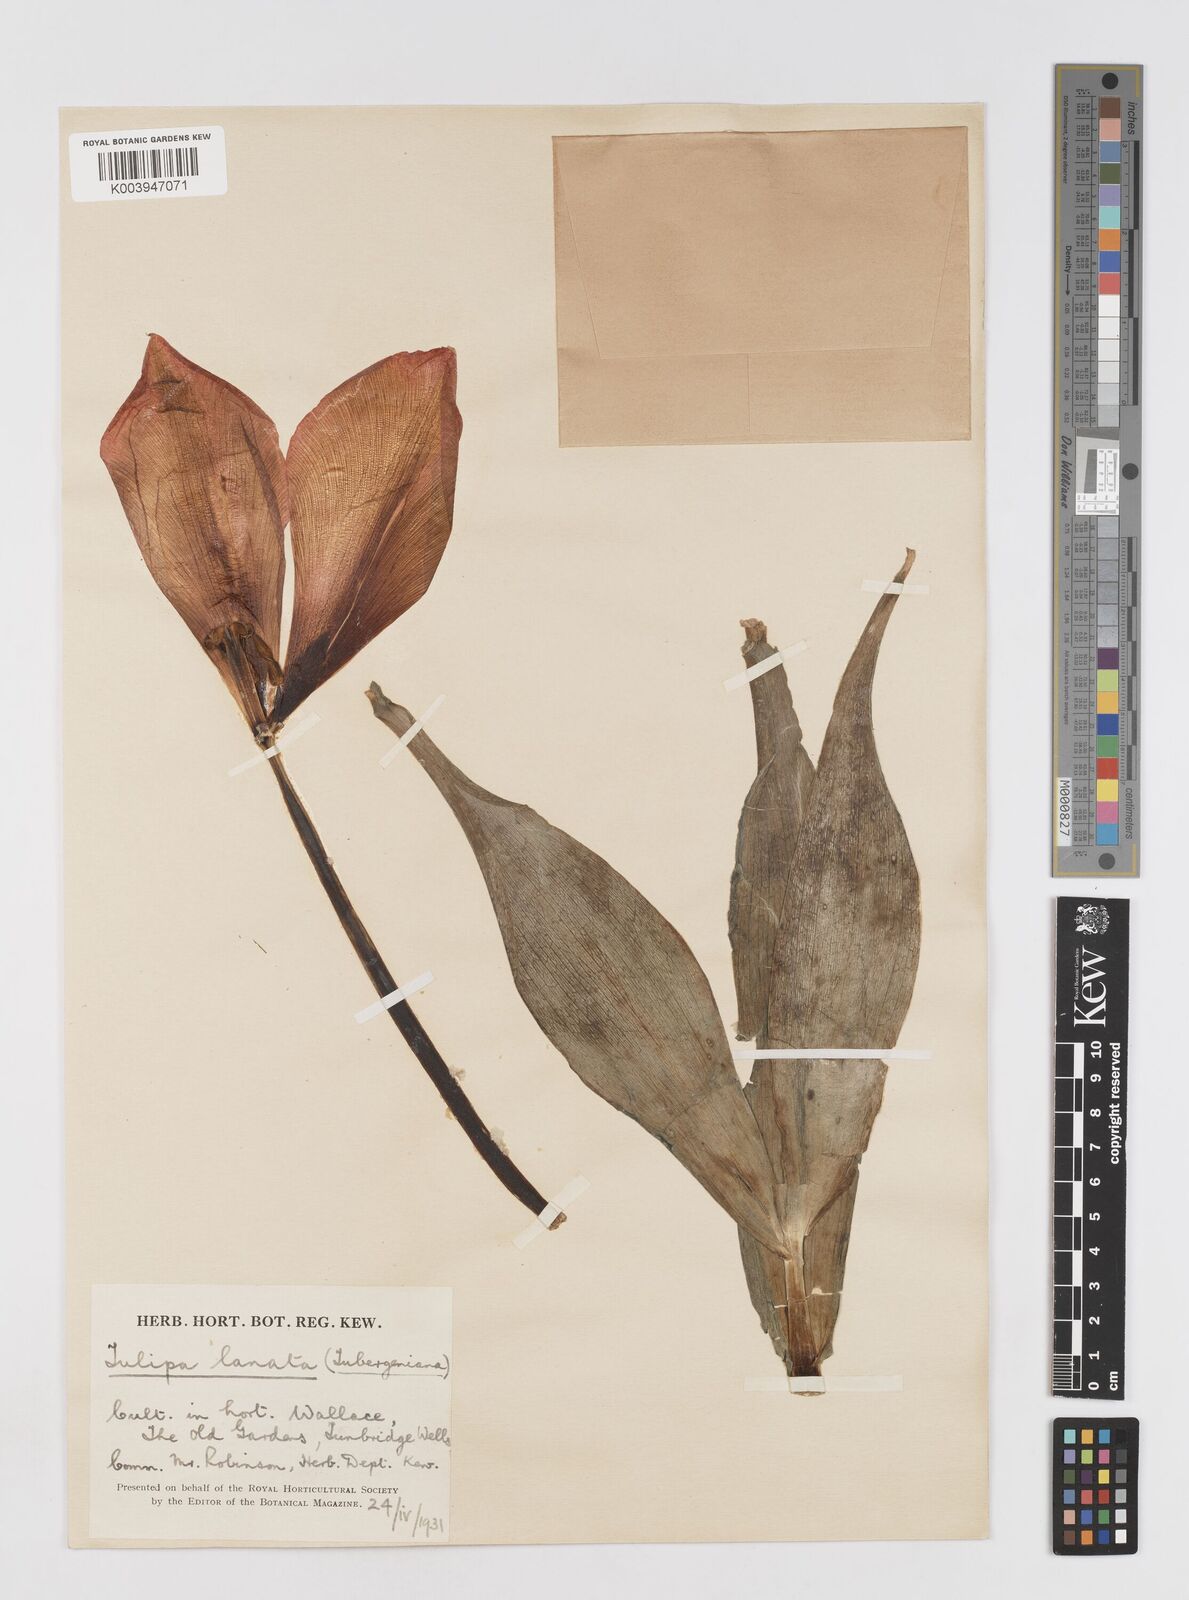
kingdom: Plantae
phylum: Tracheophyta
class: Liliopsida
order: Liliales
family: Liliaceae
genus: Tulipa
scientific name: Tulipa lanata
